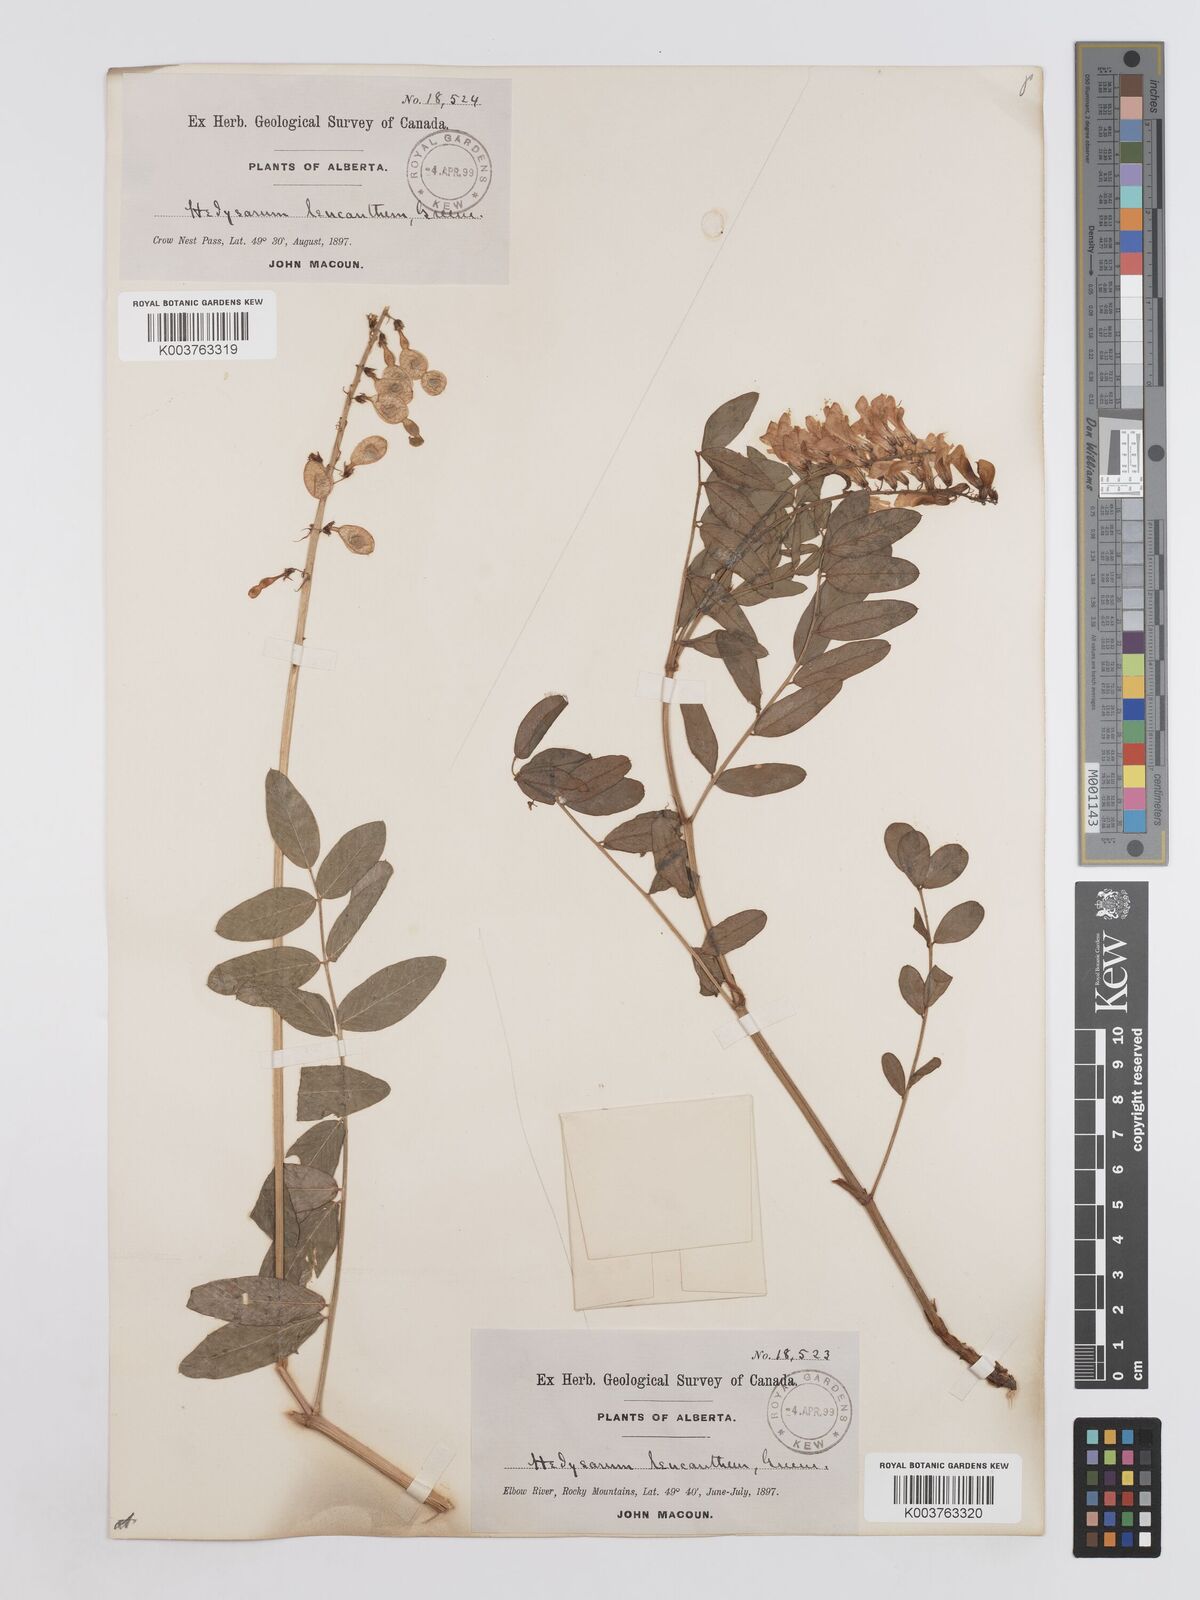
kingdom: Plantae
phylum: Tracheophyta
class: Magnoliopsida
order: Fabales
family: Fabaceae
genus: Hedysarum
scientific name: Hedysarum sulphurescens
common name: Sulphur hedysarum
